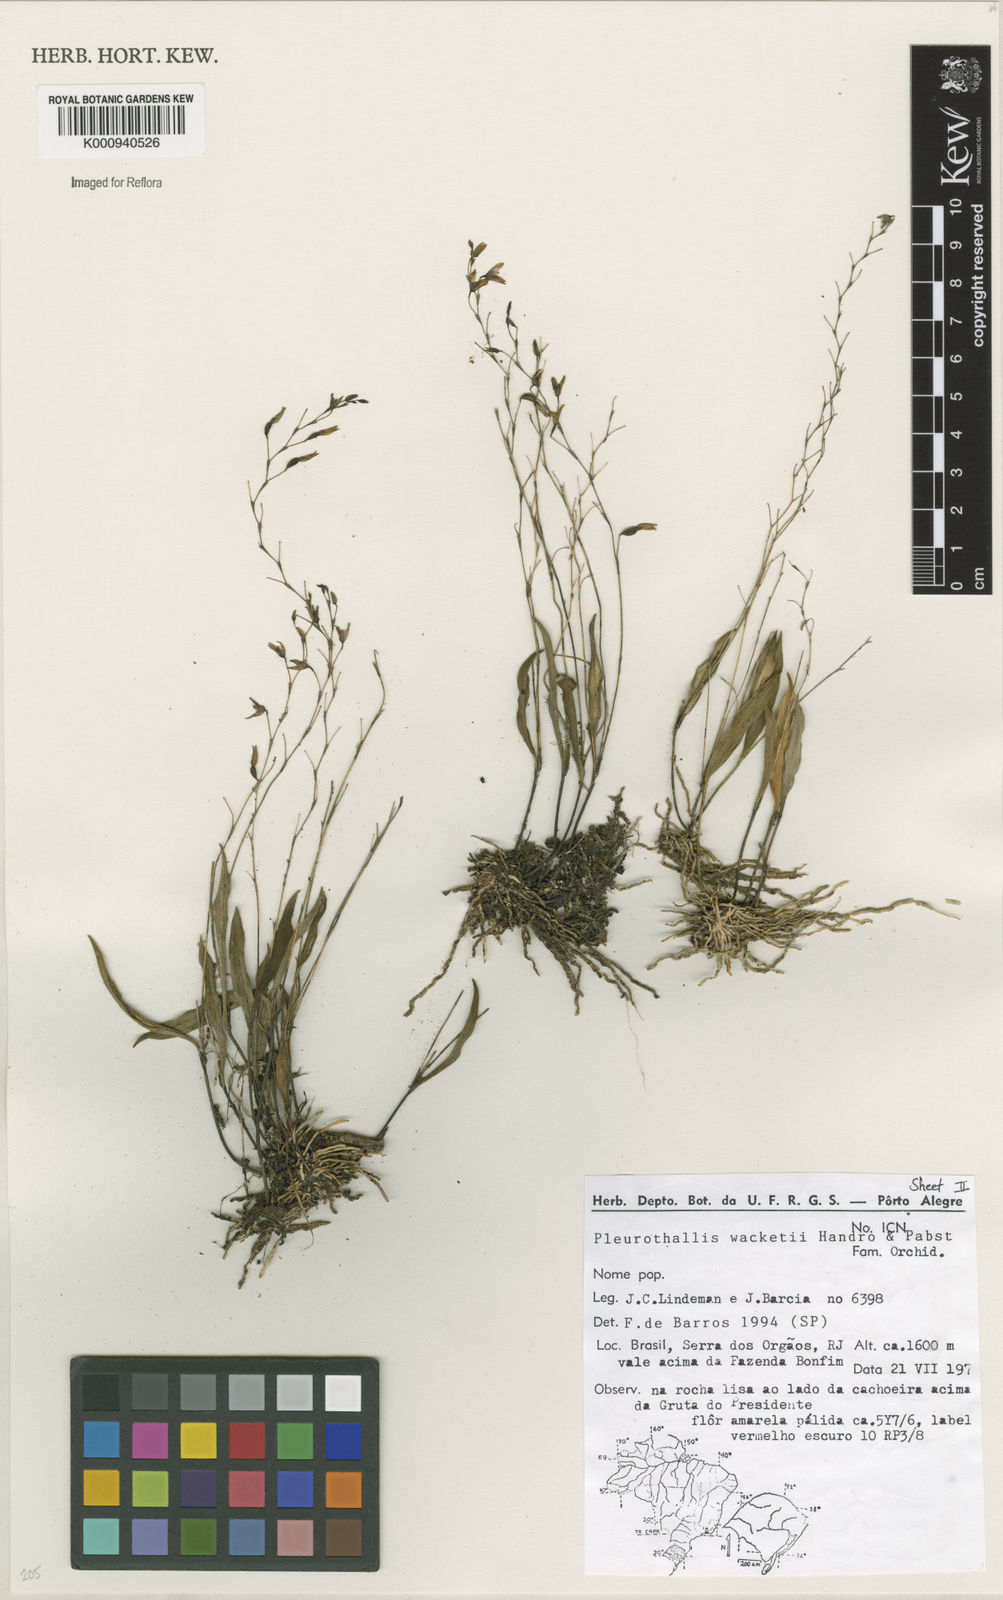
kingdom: Plantae
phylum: Tracheophyta
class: Liliopsida
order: Asparagales
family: Orchidaceae
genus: Pabstiella
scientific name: Pabstiella wacketii
